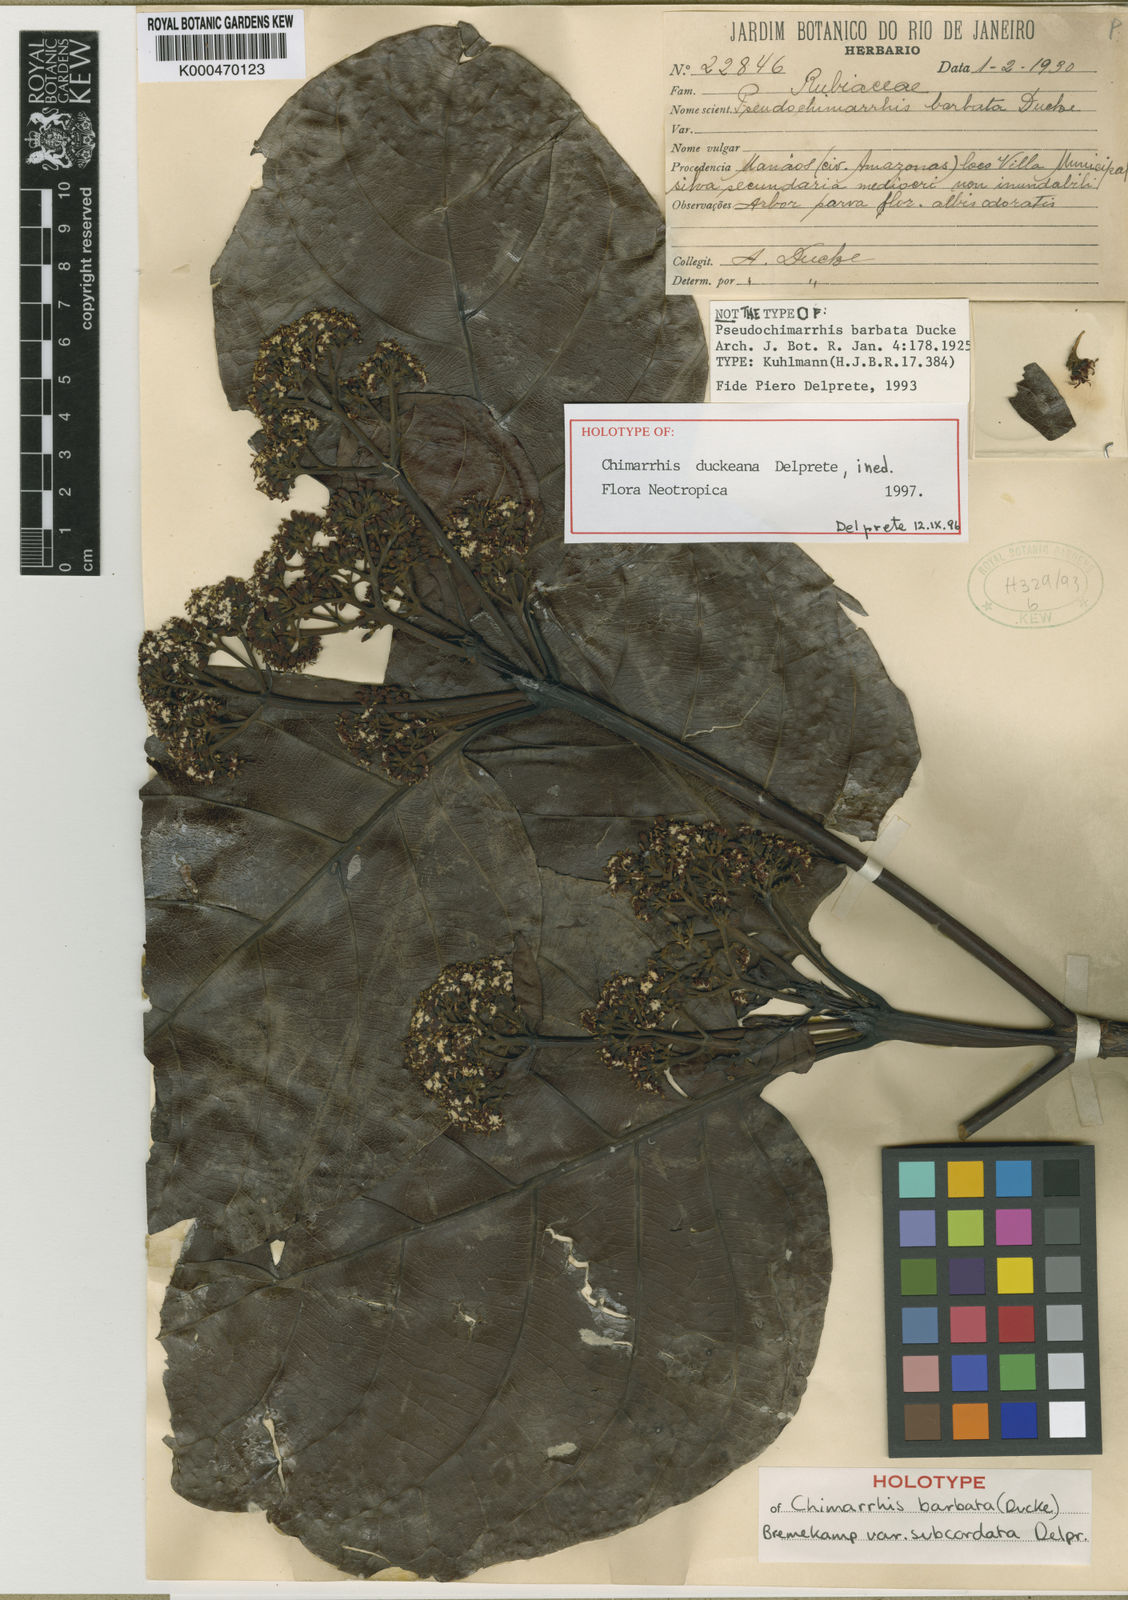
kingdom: Plantae
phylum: Tracheophyta
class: Magnoliopsida
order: Gentianales
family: Rubiaceae
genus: Chimarrhis
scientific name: Chimarrhis duckeana
